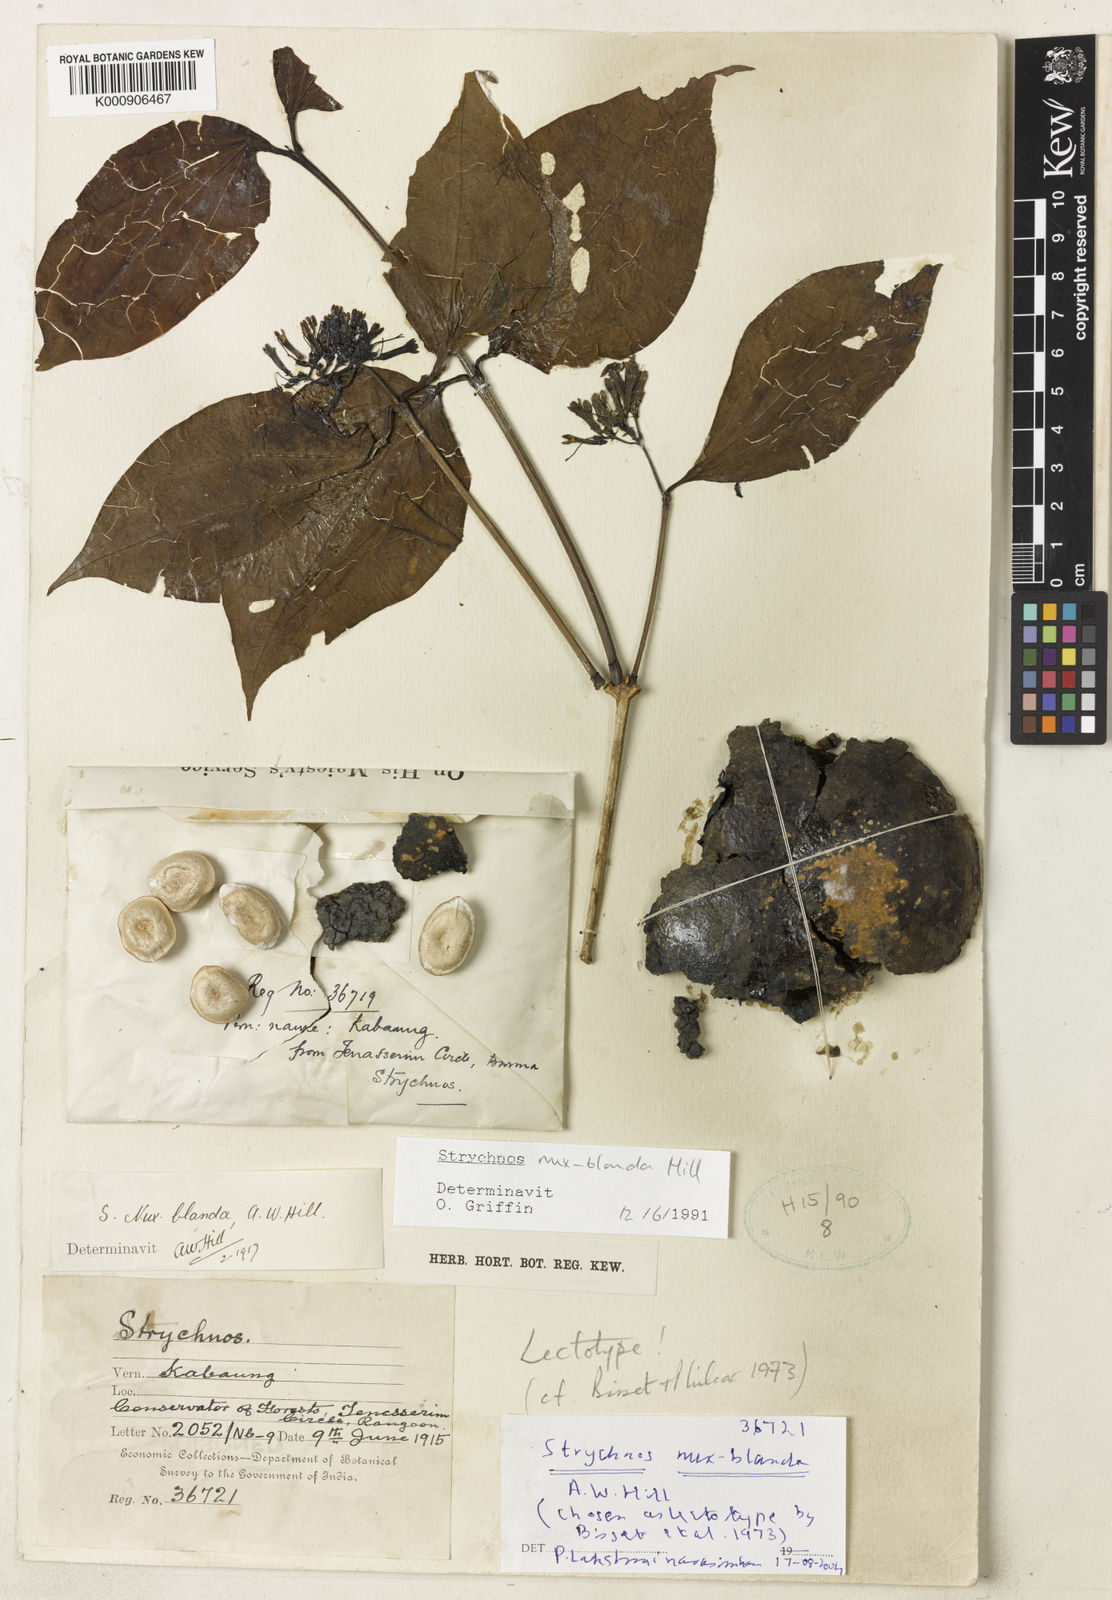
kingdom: Plantae
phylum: Tracheophyta
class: Magnoliopsida
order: Gentianales
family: Loganiaceae
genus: Strychnos
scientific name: Strychnos nux-blanda
